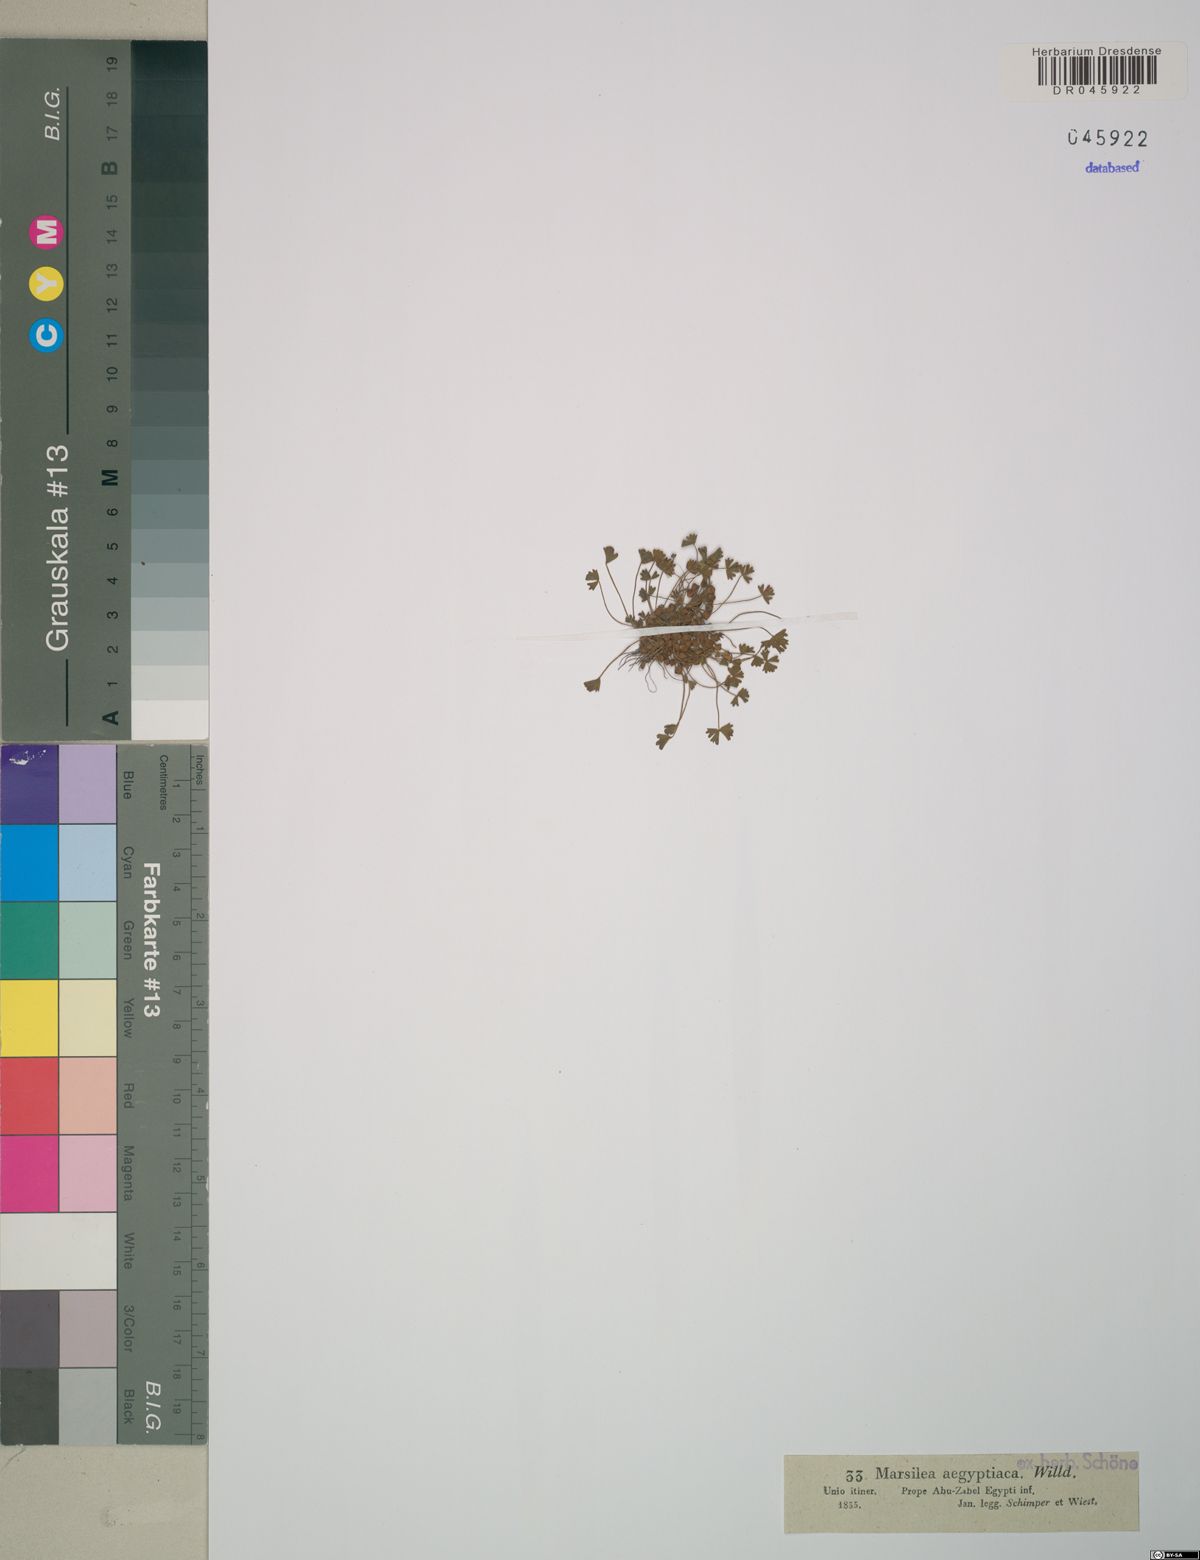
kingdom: Plantae
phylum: Tracheophyta
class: Polypodiopsida
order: Salviniales
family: Marsileaceae
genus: Marsilea
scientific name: Marsilea aegyptiaca
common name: Egyptian water-clover
